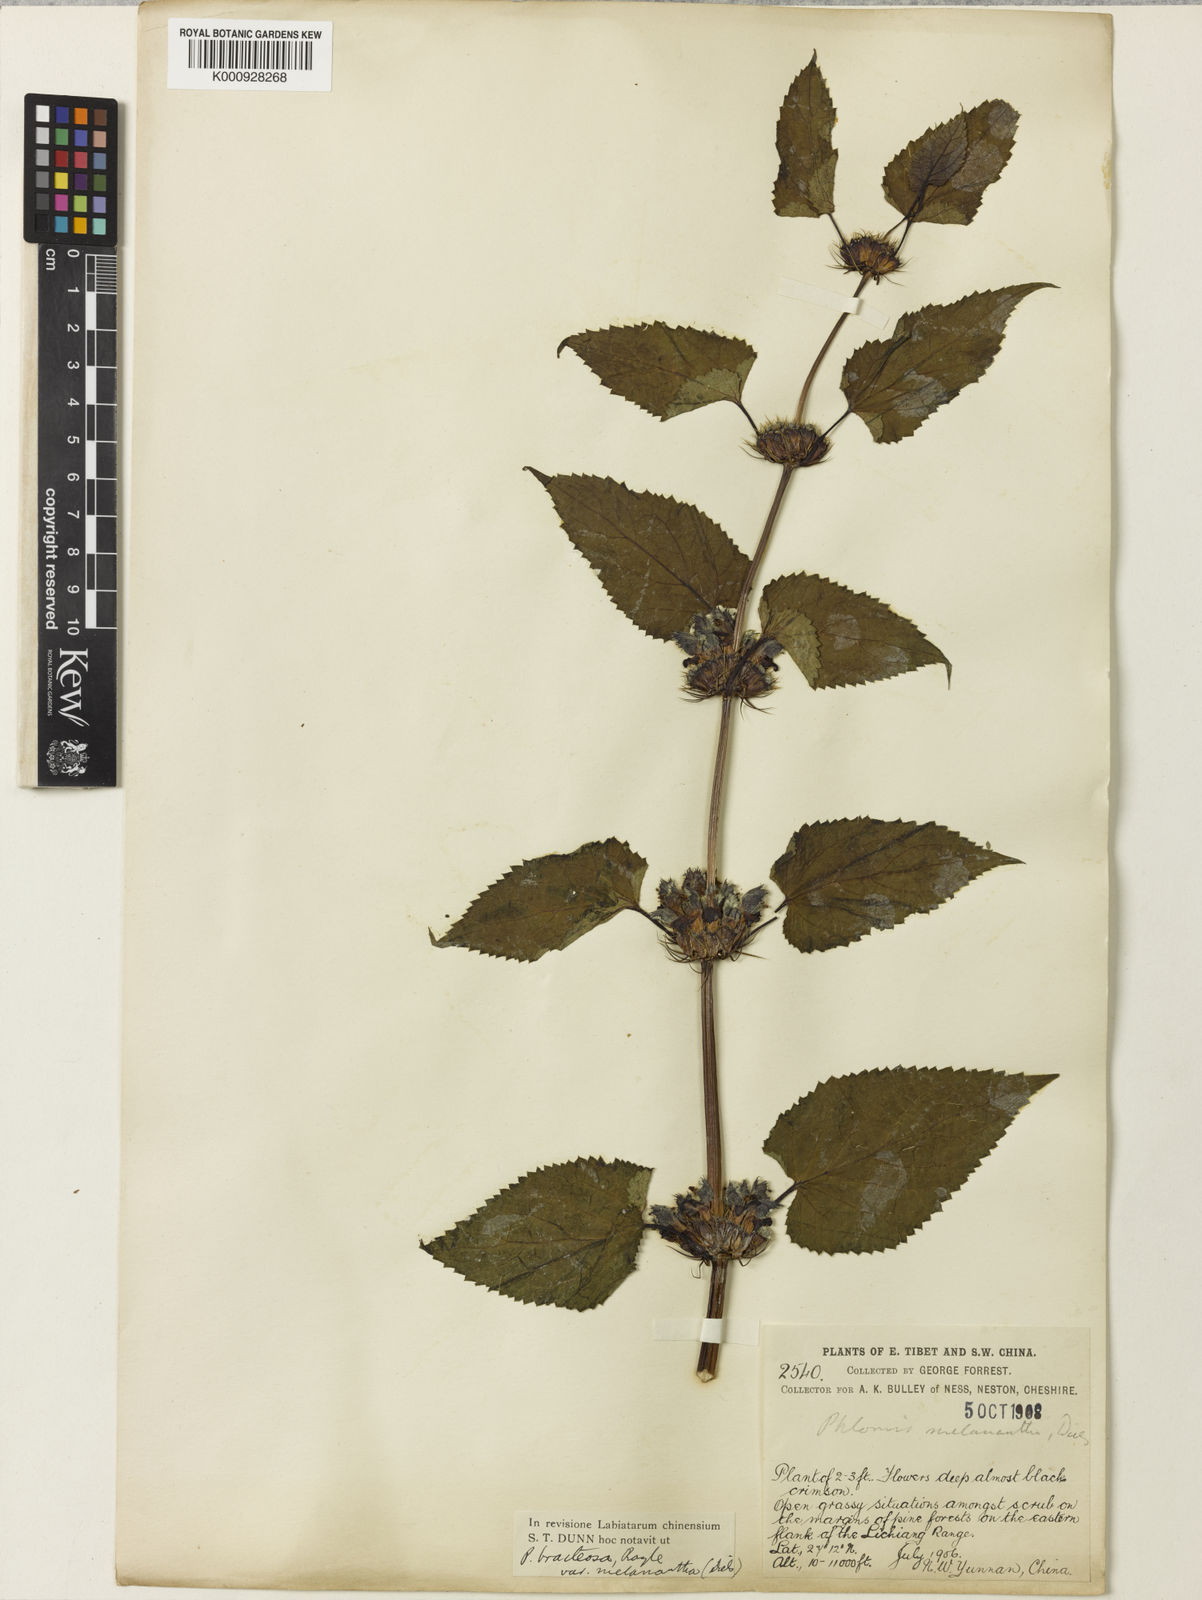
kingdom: Plantae
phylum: Tracheophyta
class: Magnoliopsida
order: Lamiales
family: Lamiaceae
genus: Phlomoides
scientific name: Phlomoides bracteosa
